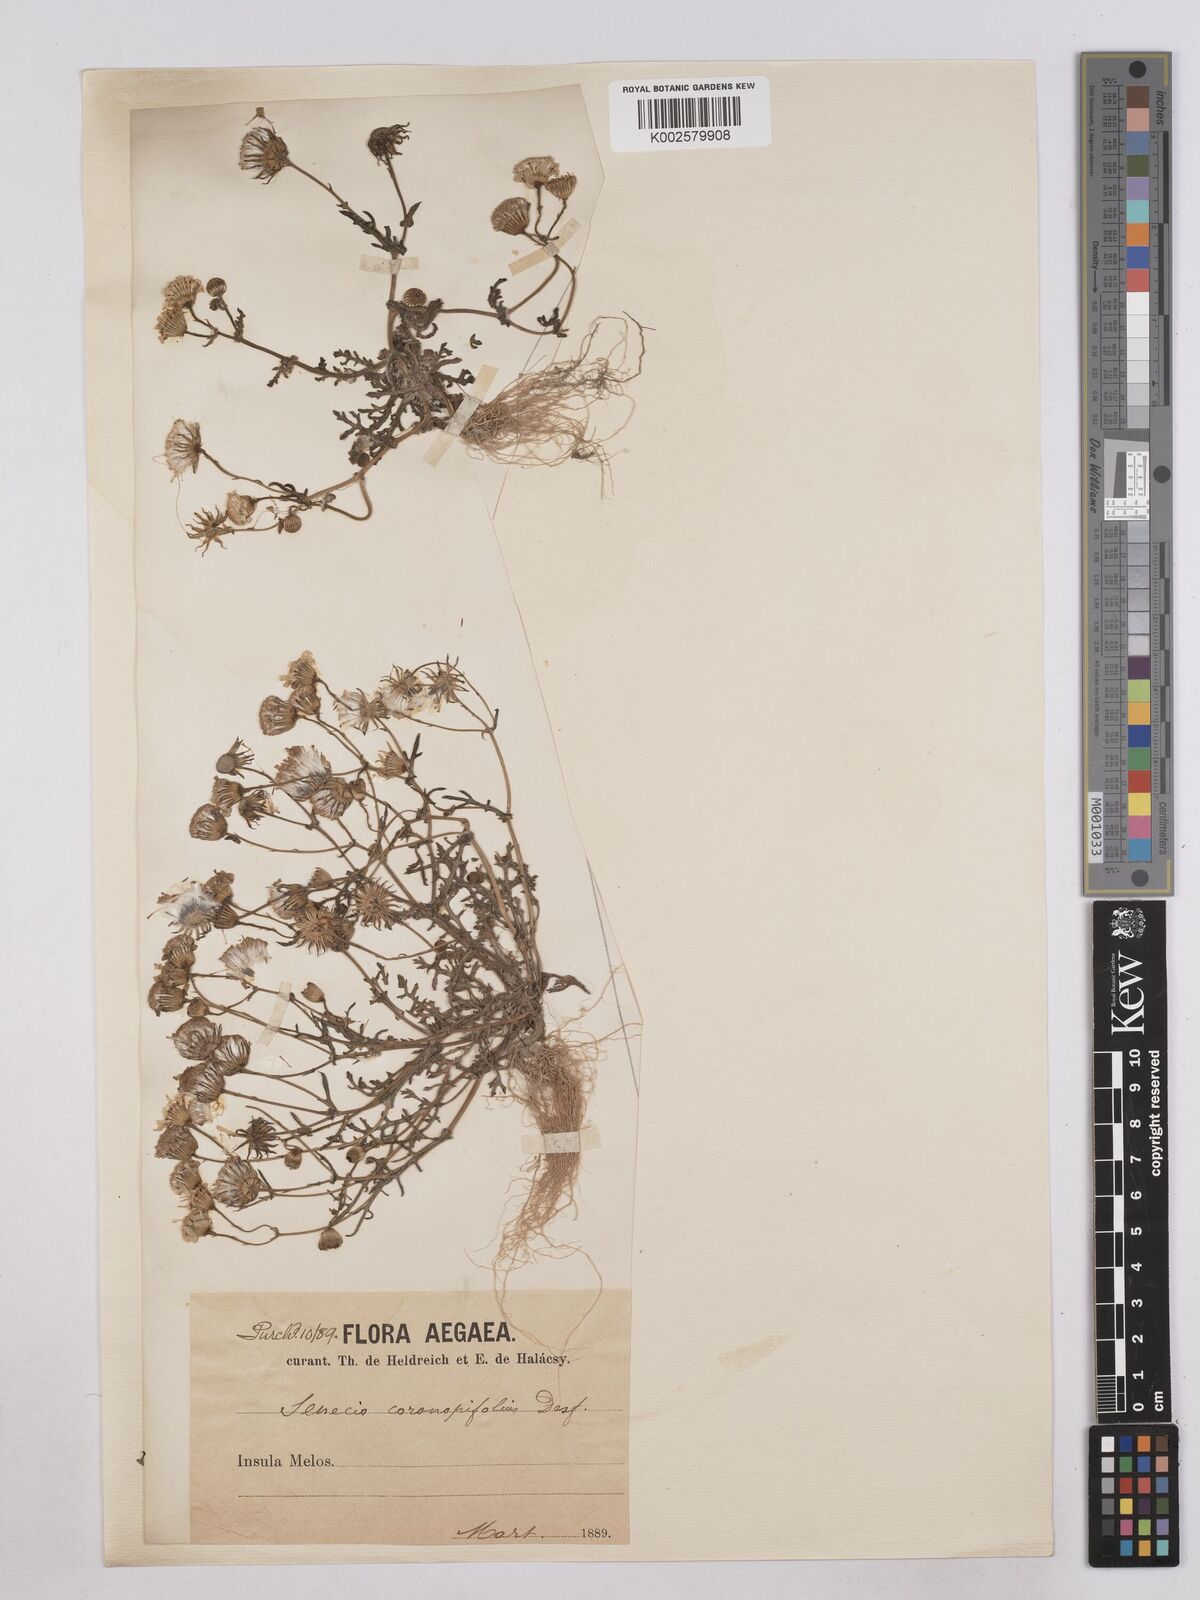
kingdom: Plantae
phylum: Tracheophyta
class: Magnoliopsida
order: Asterales
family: Asteraceae
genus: Senecio
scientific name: Senecio glaucus
